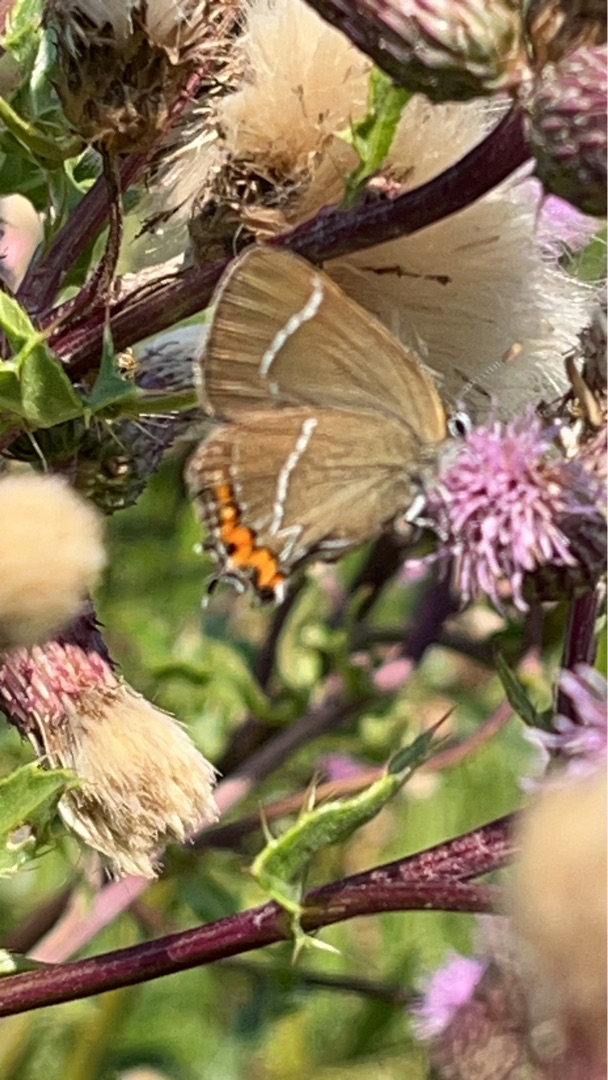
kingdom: Animalia
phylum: Arthropoda
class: Insecta
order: Lepidoptera
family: Lycaenidae
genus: Satyrium
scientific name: Satyrium w-album
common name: Det hvide W
